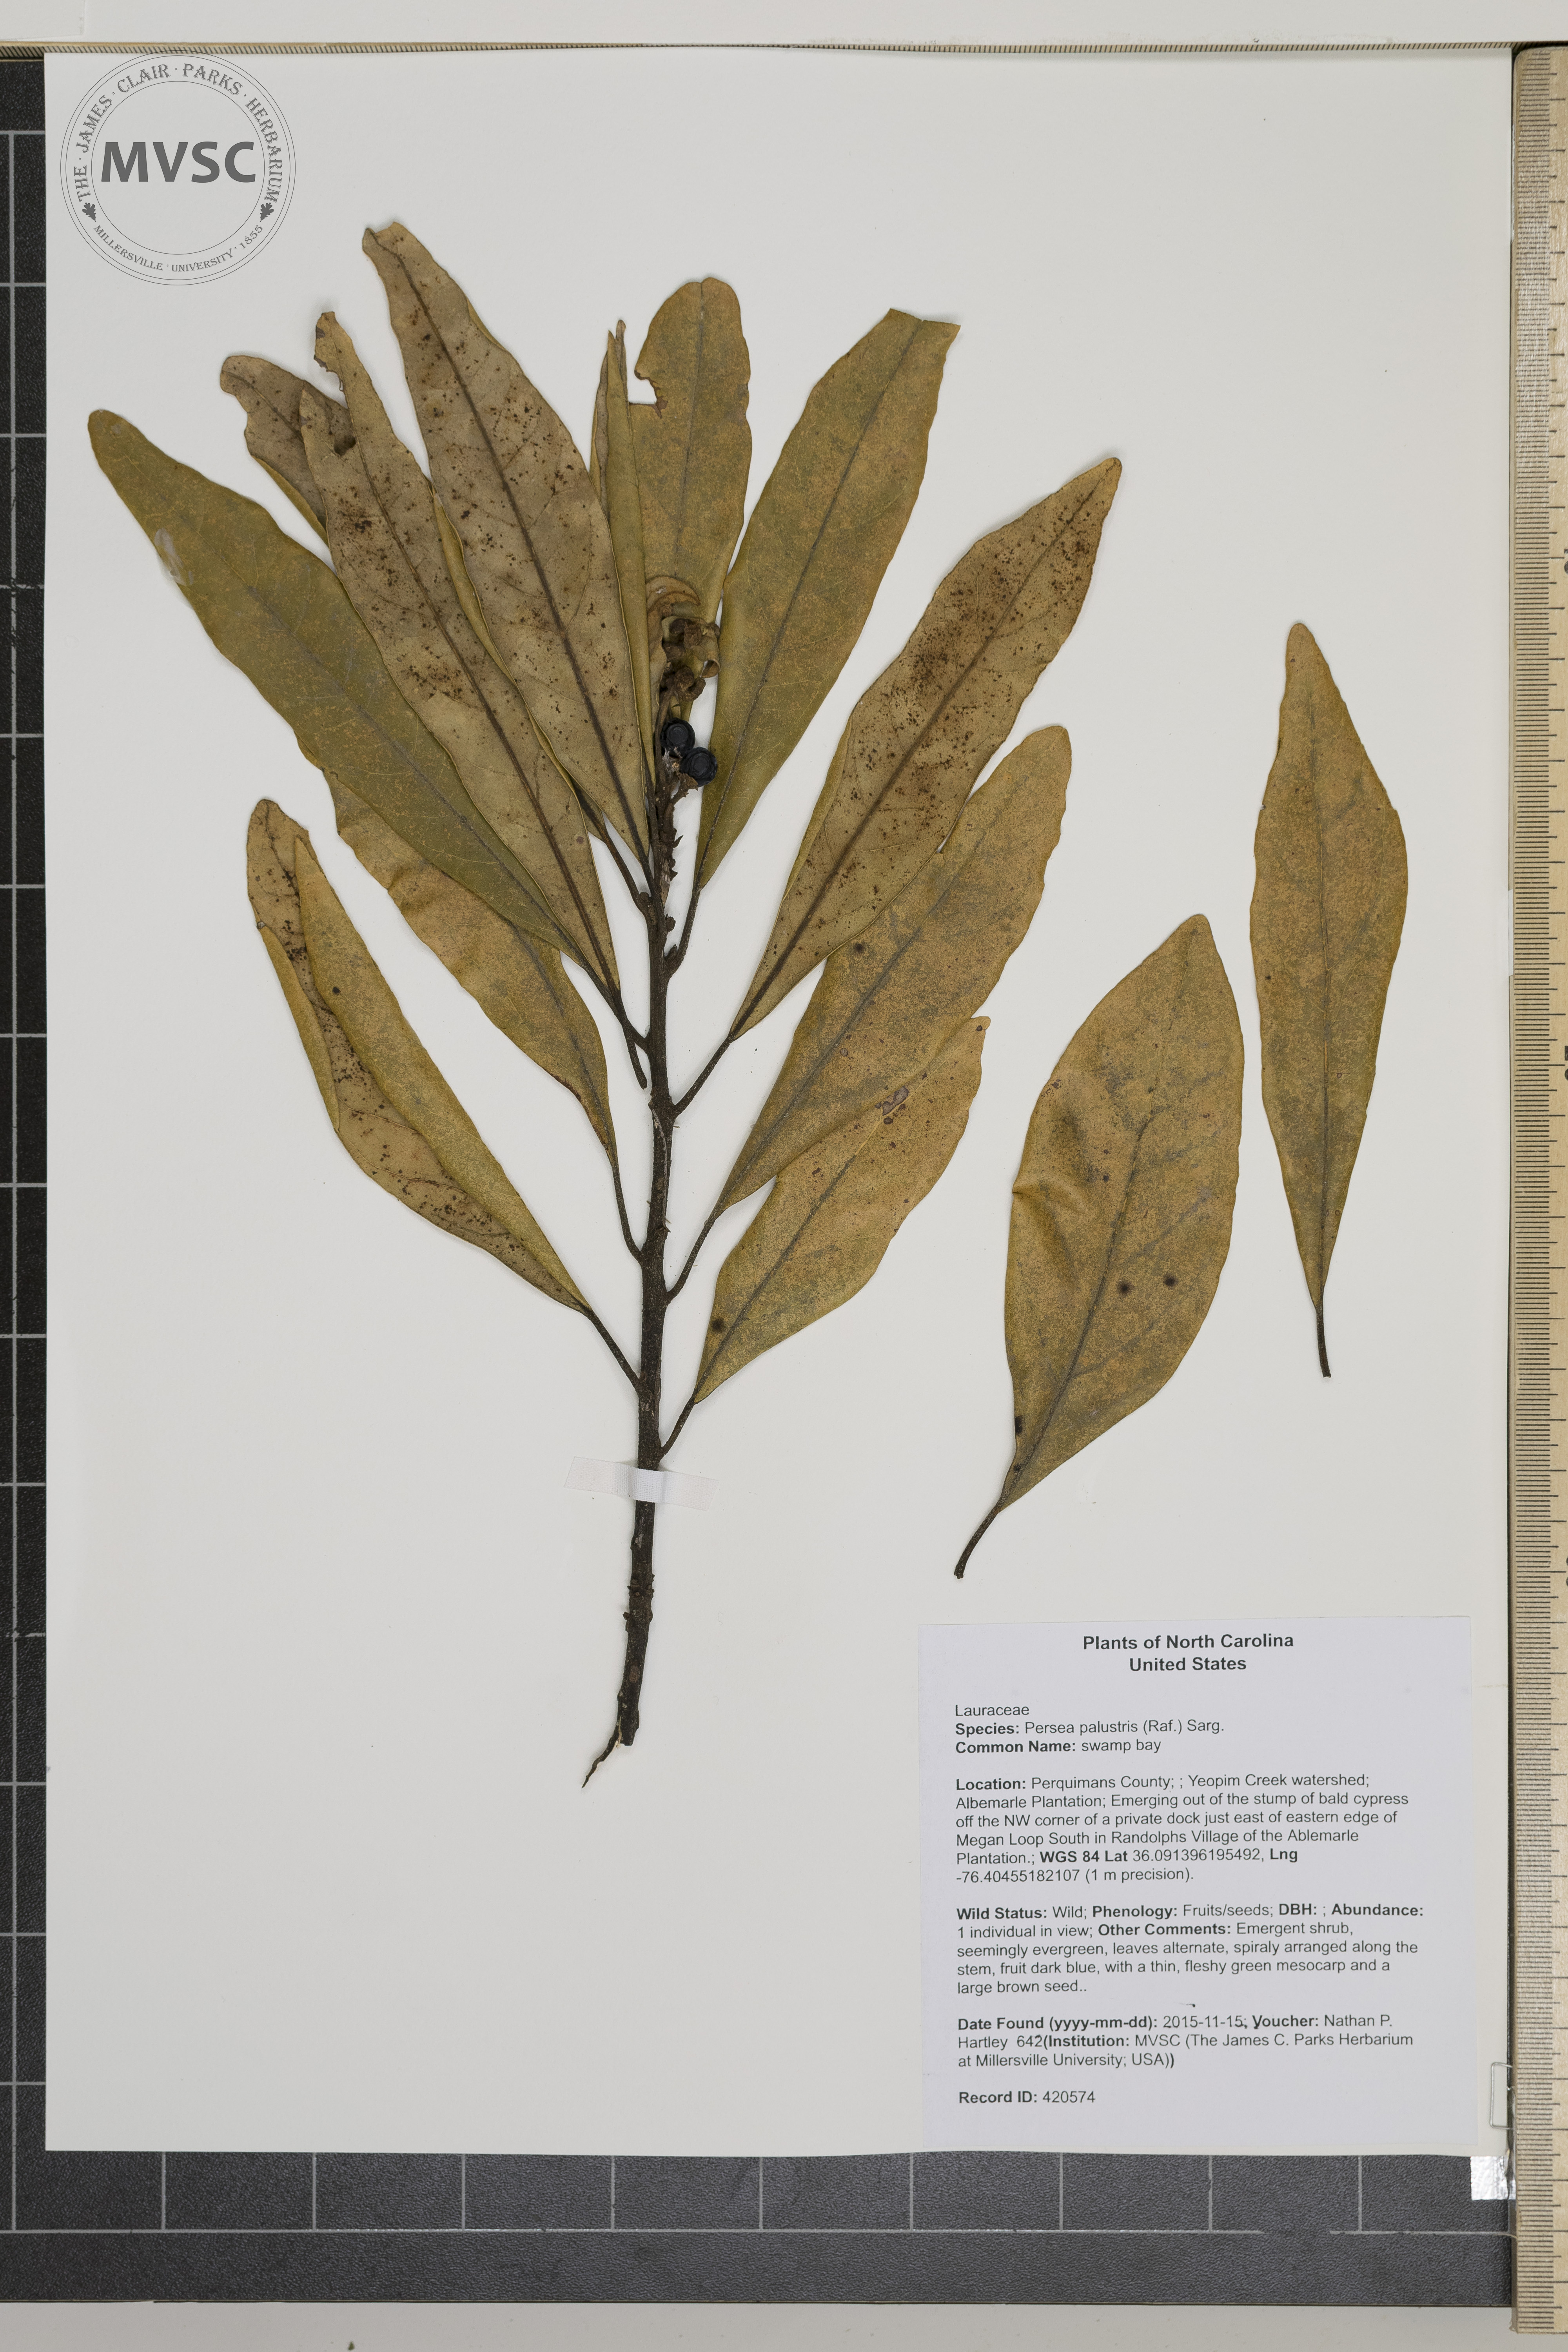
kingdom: Plantae
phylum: Tracheophyta
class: Magnoliopsida
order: Laurales
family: Lauraceae
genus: Persea
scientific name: Persea palustris
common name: swamp bay
